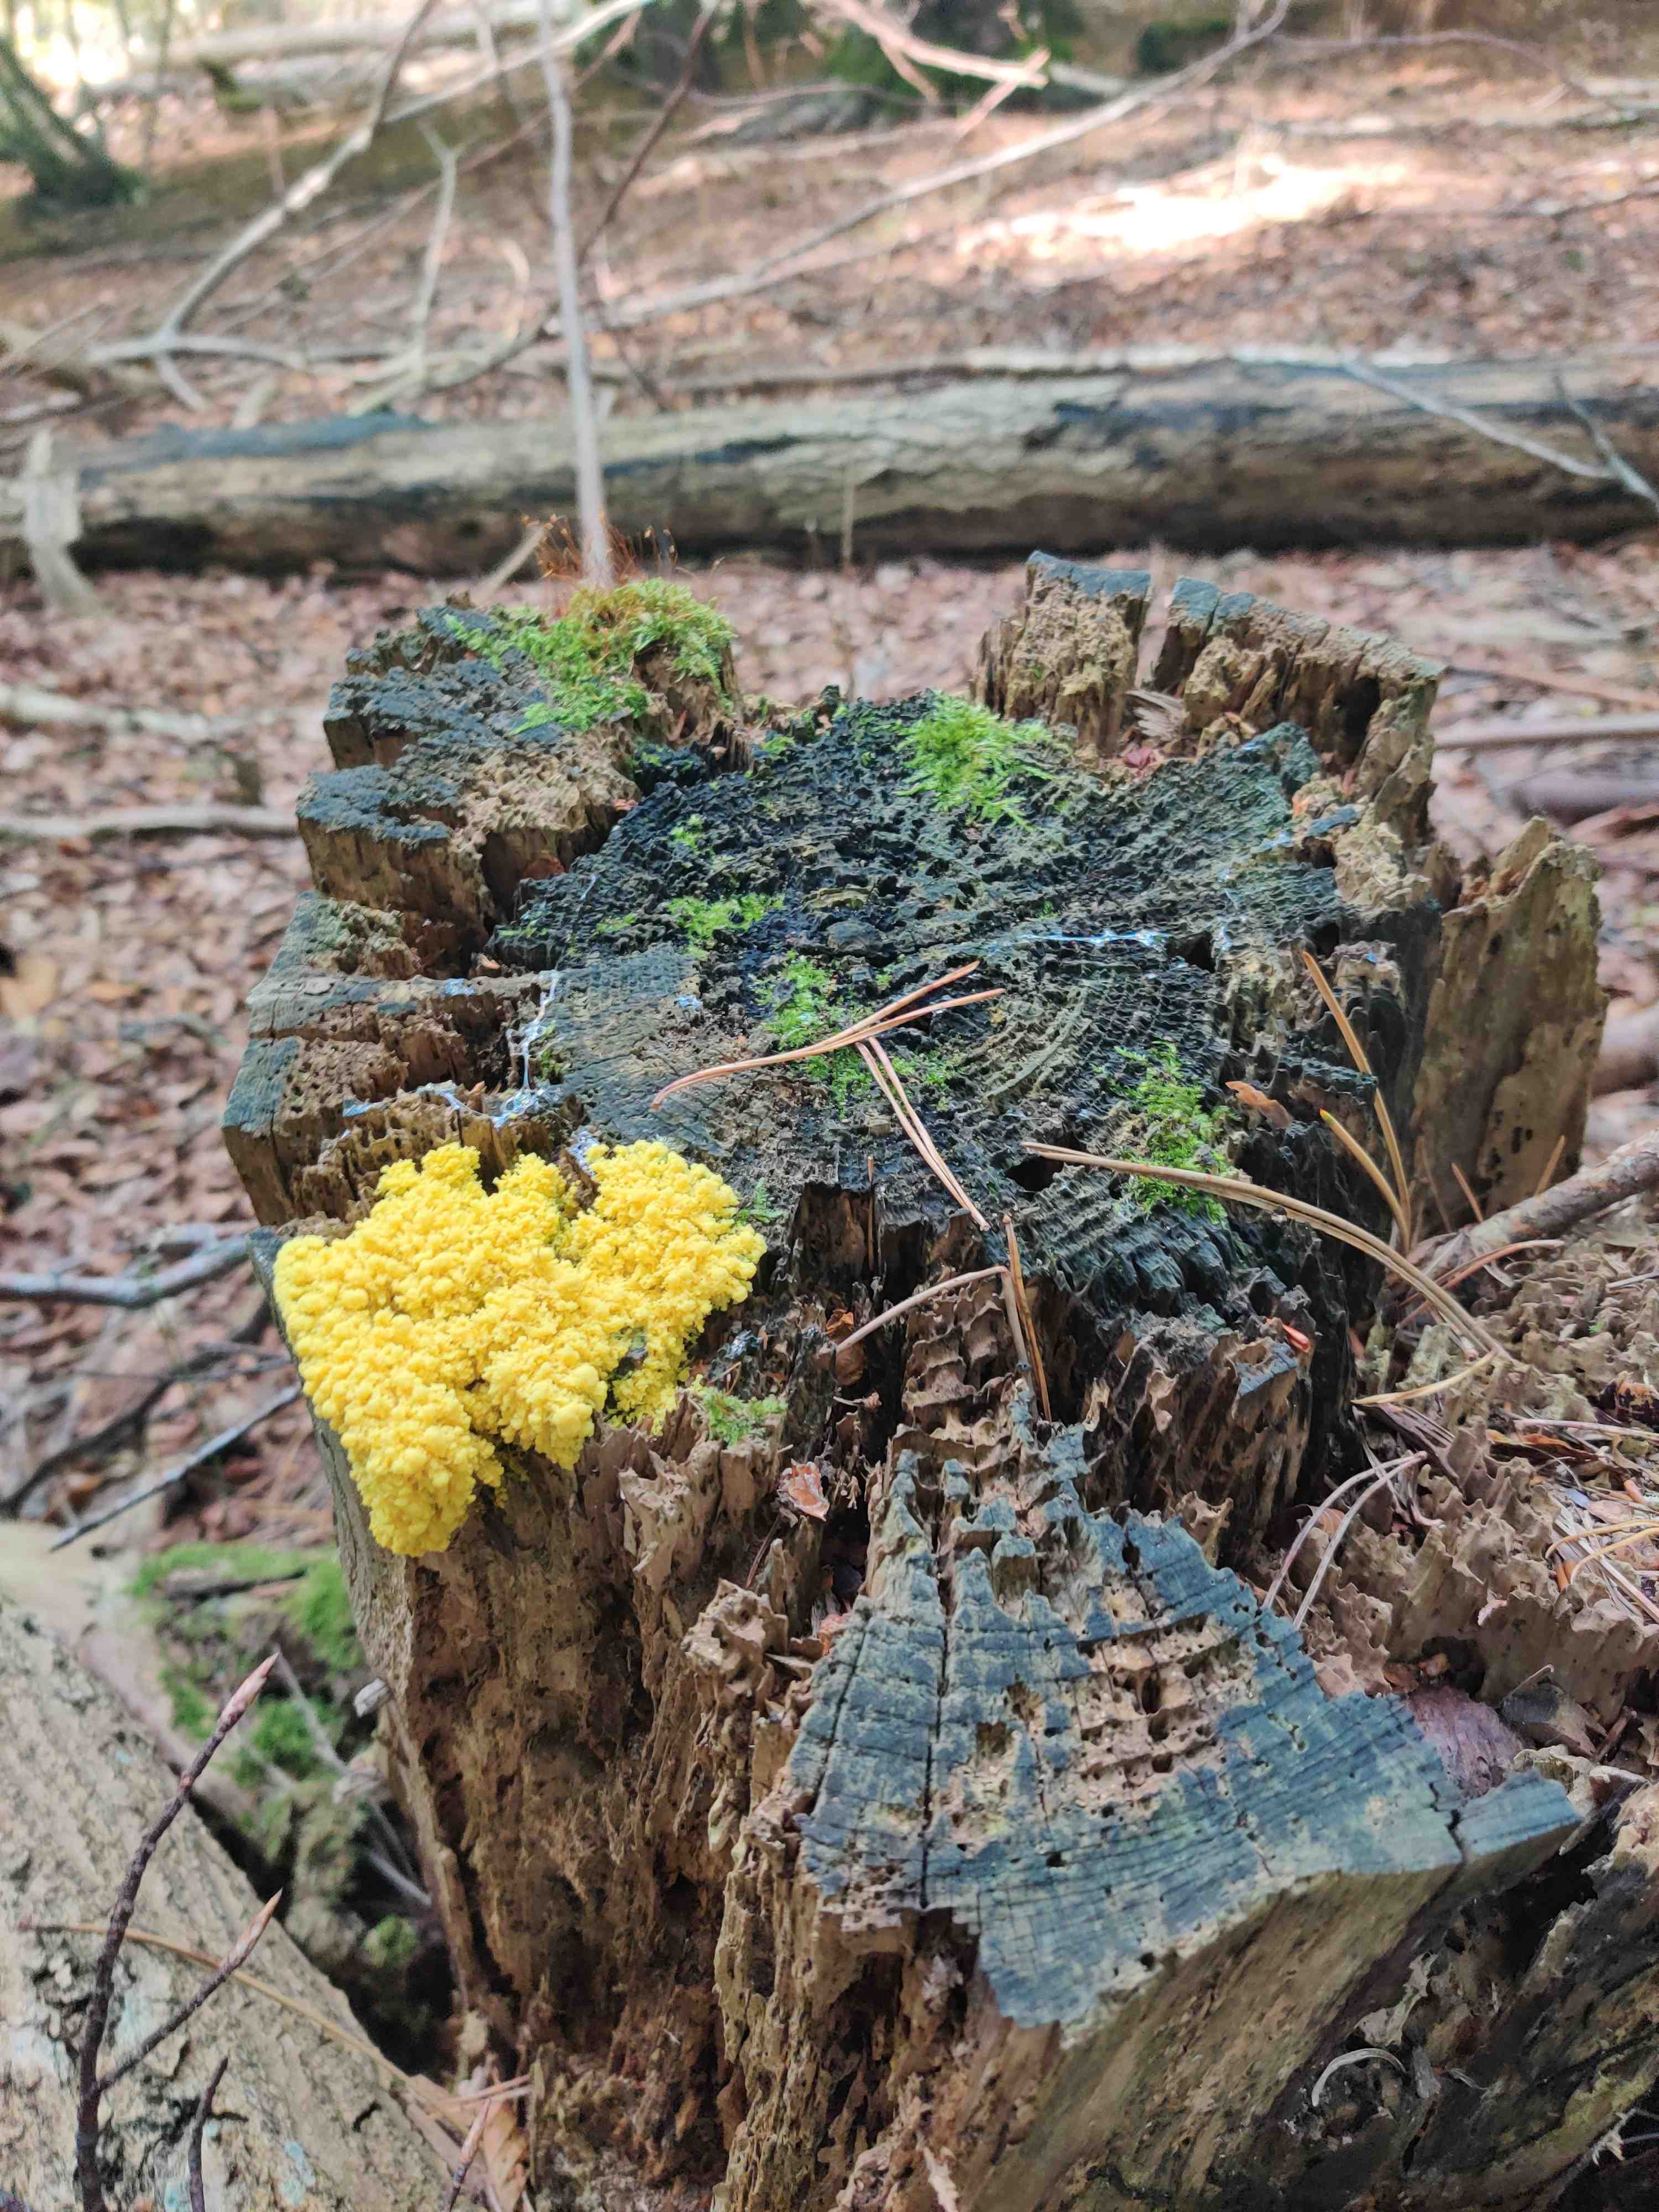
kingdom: Protozoa
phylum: Mycetozoa
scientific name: Mycetozoa
